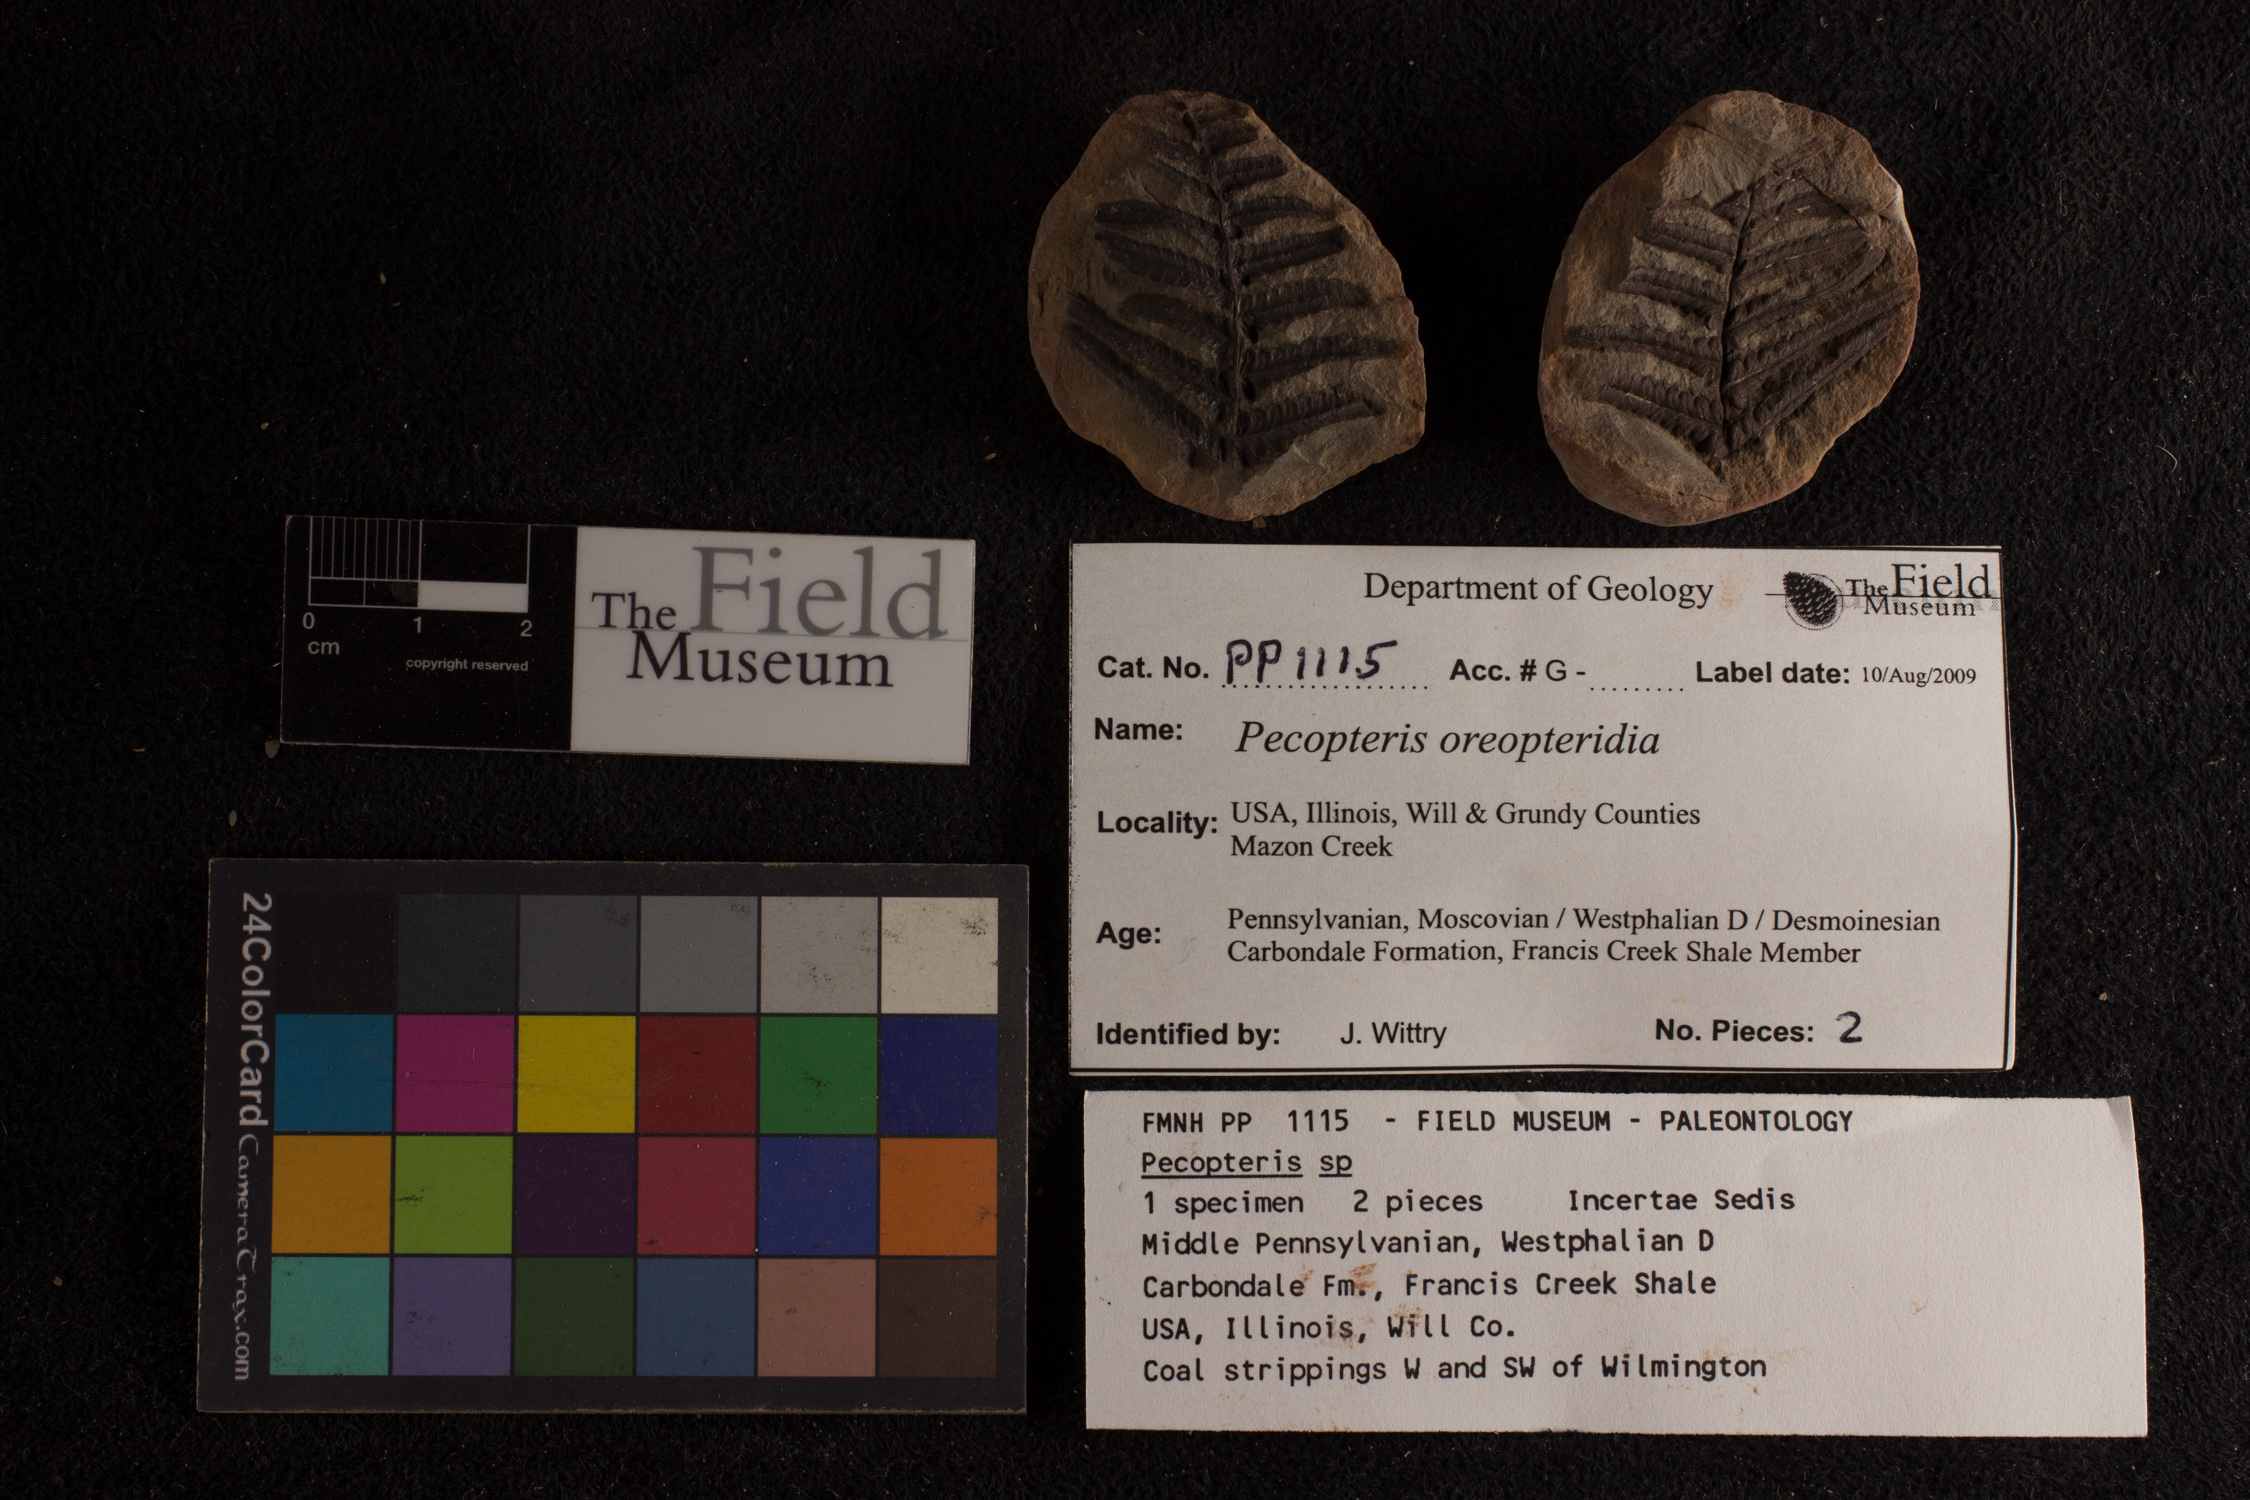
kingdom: Plantae
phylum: Tracheophyta
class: Polypodiopsida
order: Marattiales
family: Asterothecaceae
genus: Pecopteris
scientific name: Pecopteris
